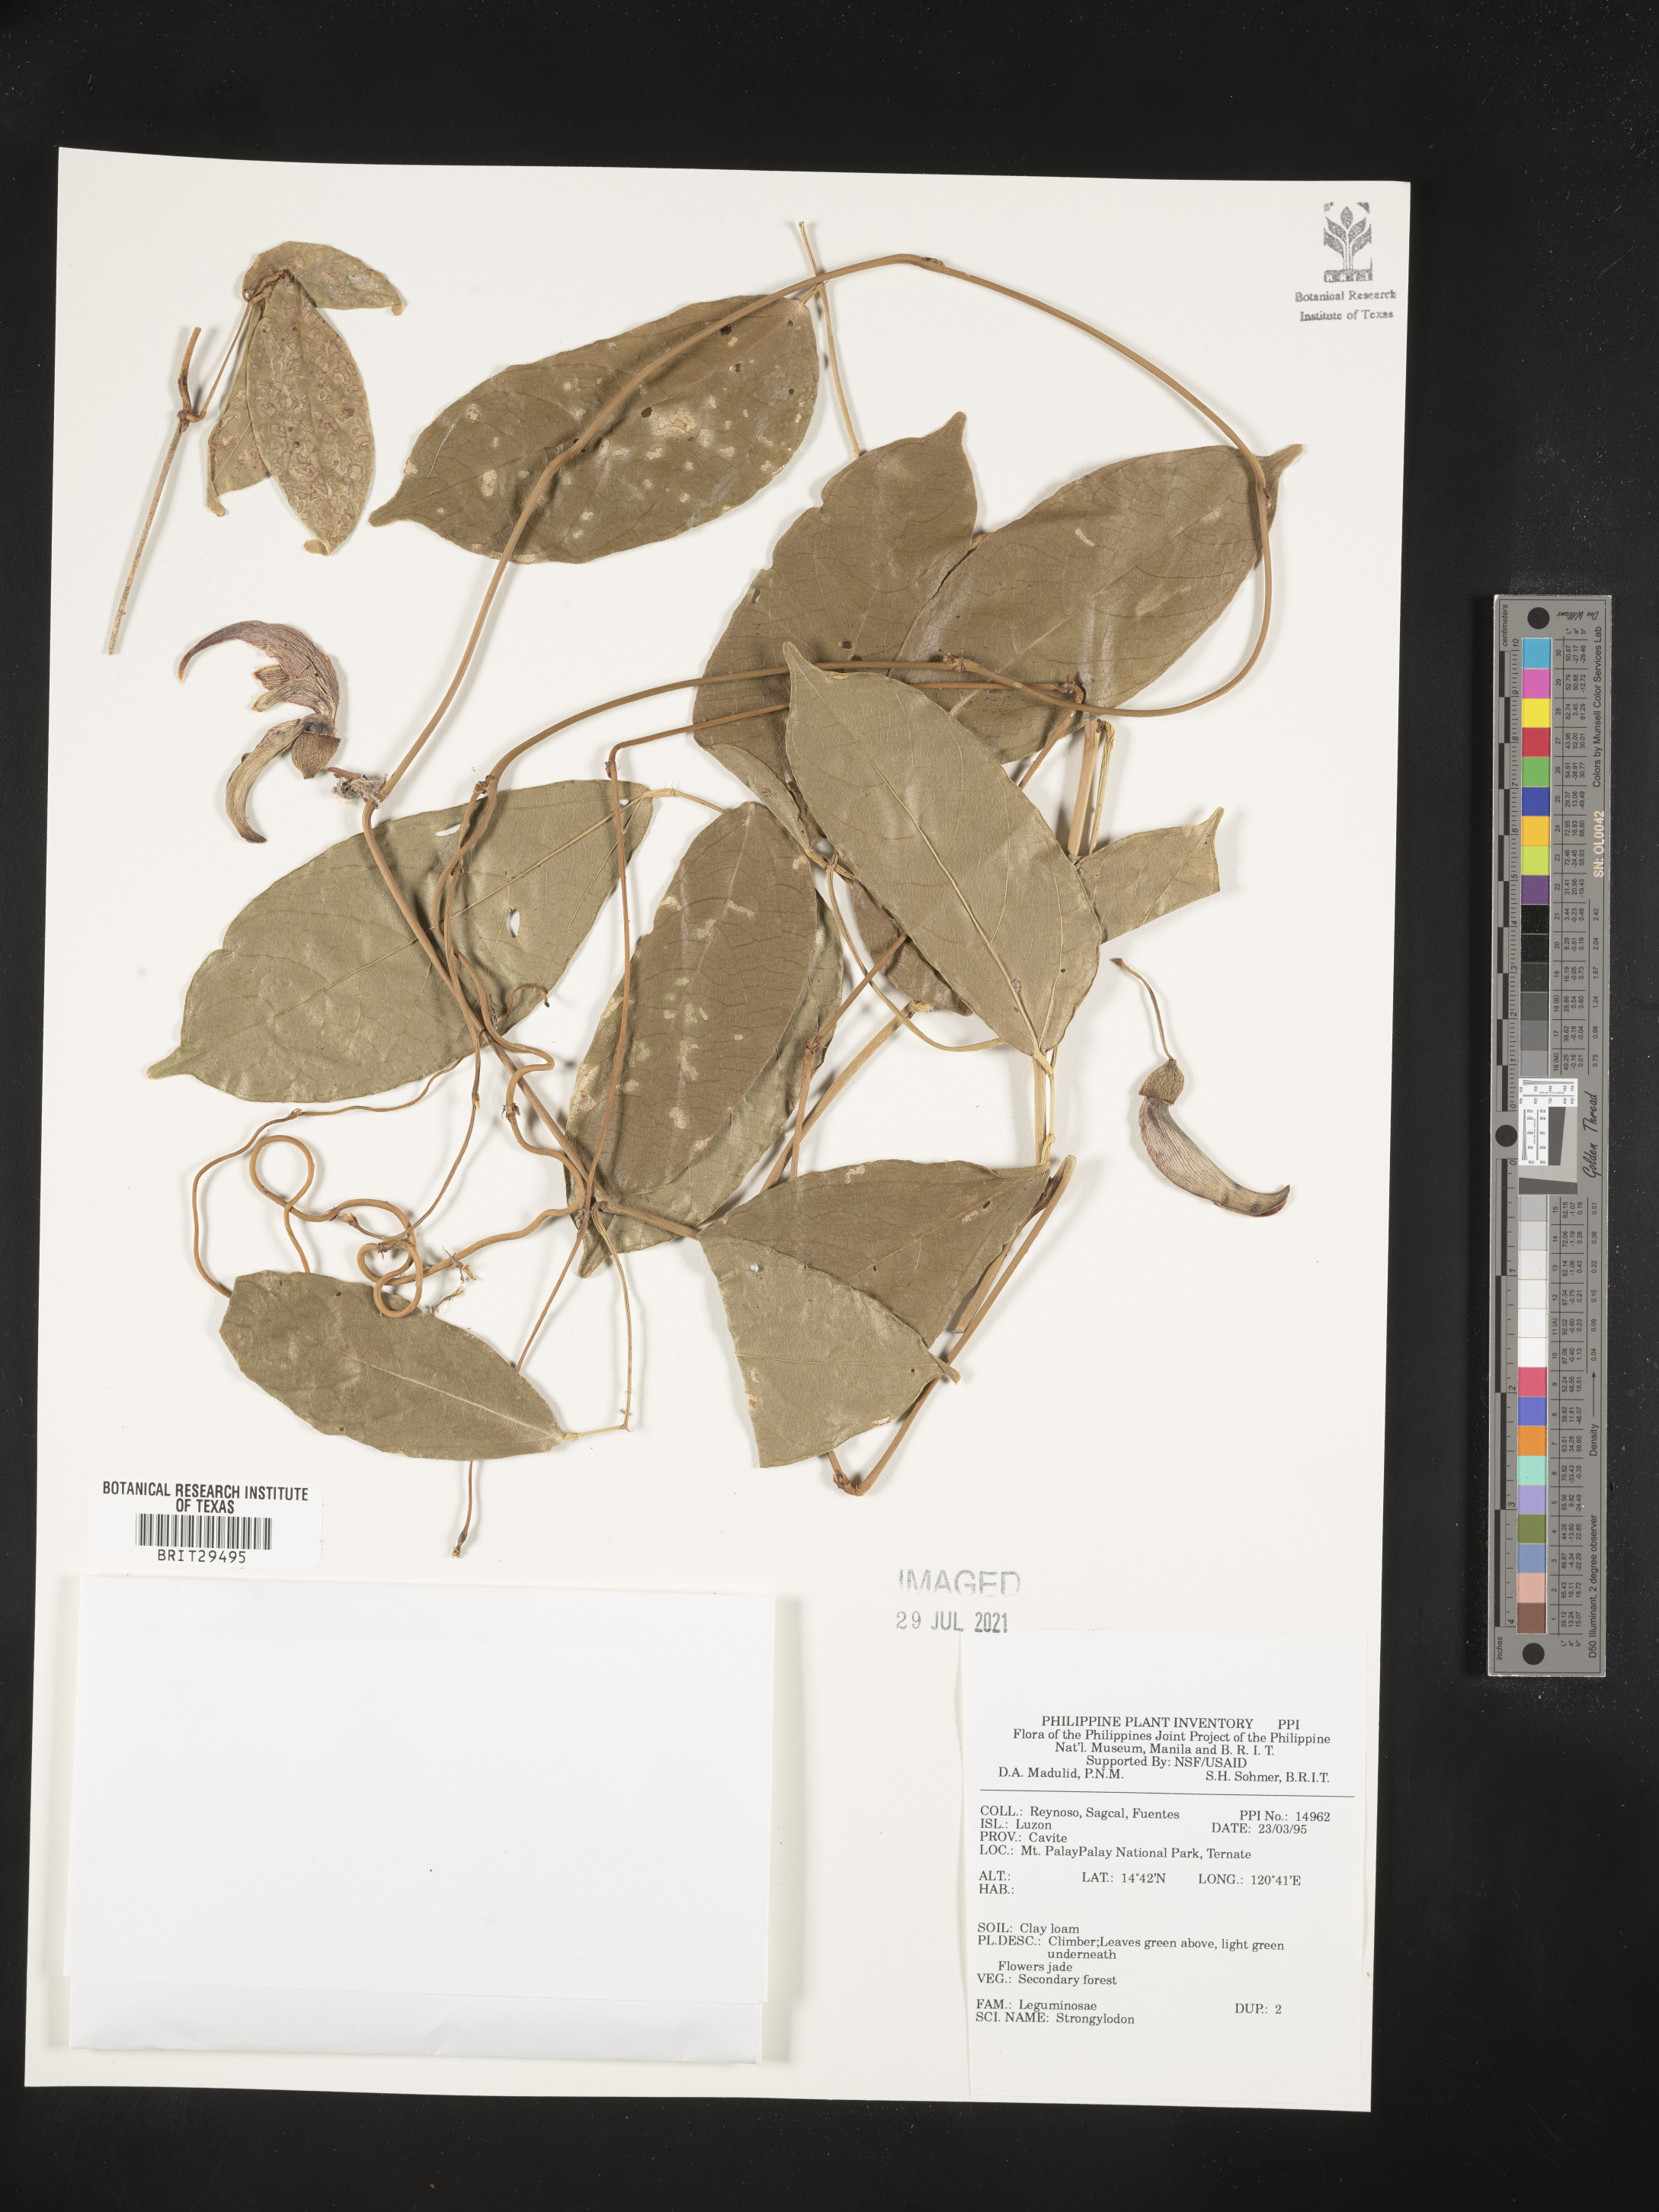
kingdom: Plantae
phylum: Tracheophyta
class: Magnoliopsida
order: Fabales
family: Fabaceae
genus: Strongylodon
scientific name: Strongylodon
